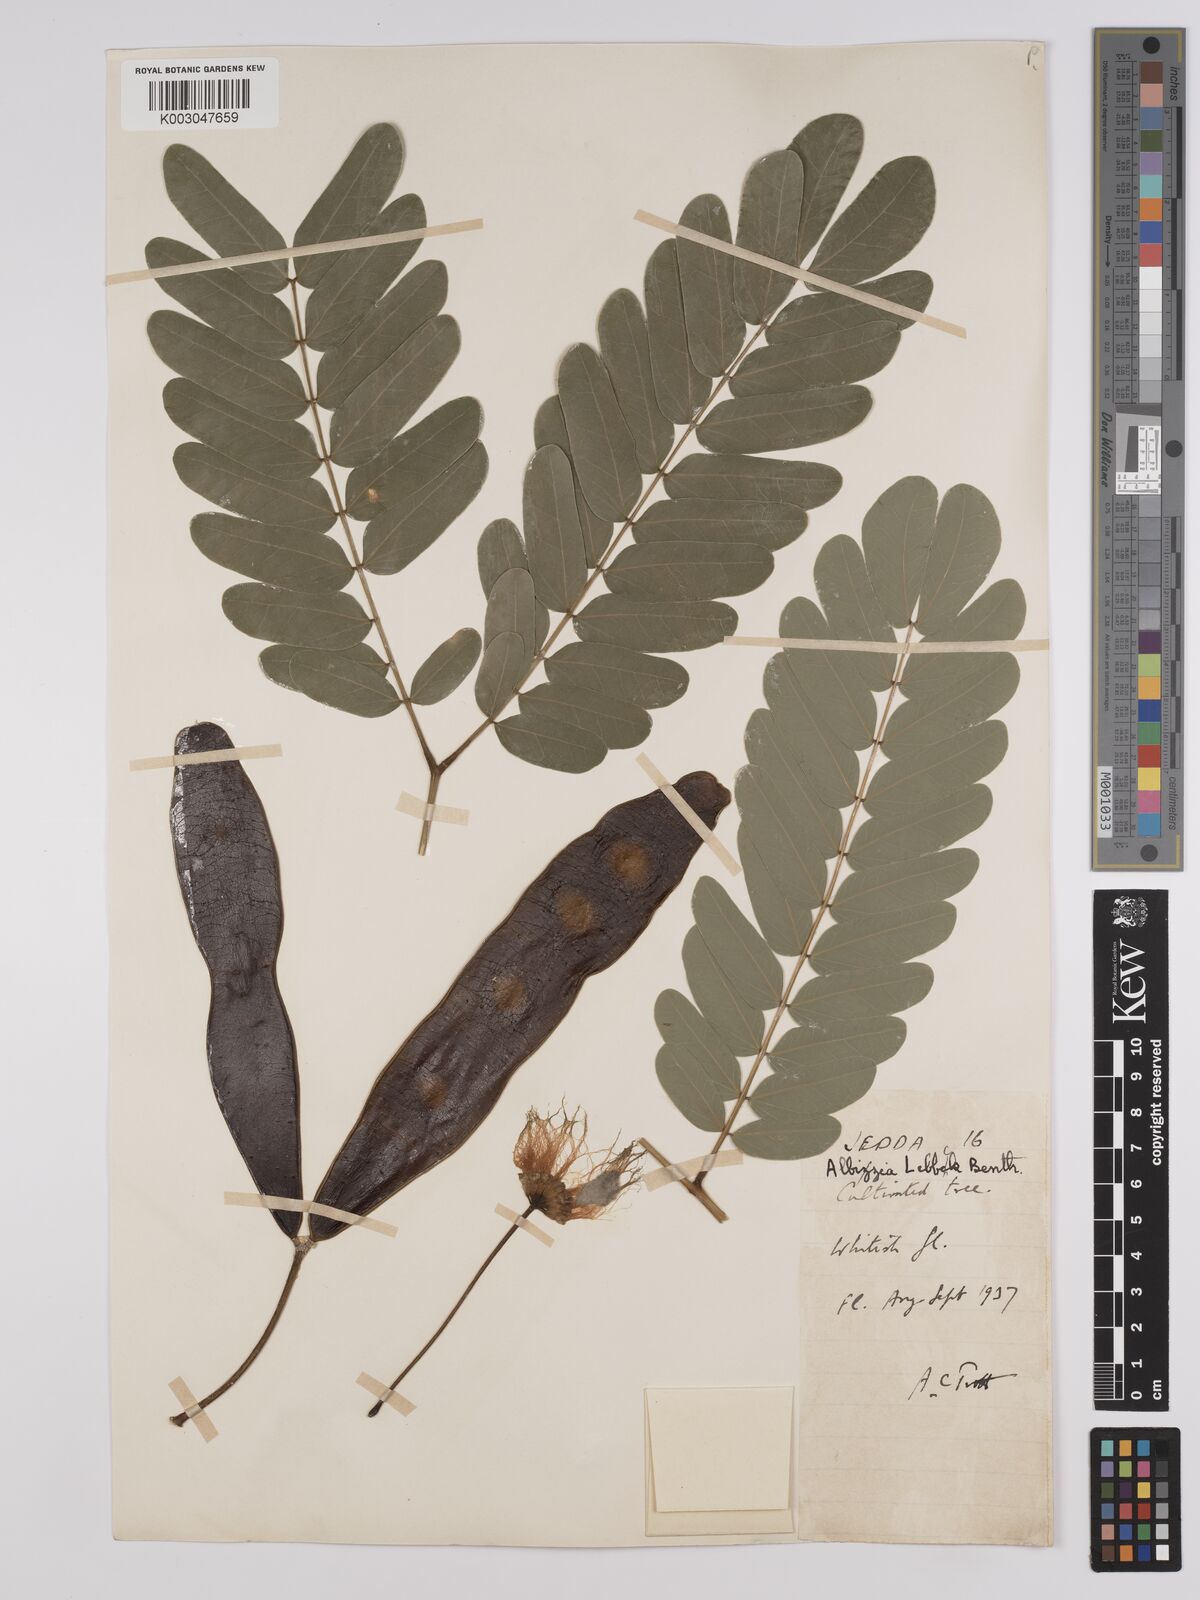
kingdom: Plantae
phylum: Tracheophyta
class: Magnoliopsida
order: Fabales
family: Fabaceae
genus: Albizia
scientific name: Albizia lebbeck
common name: Woman's tongue
